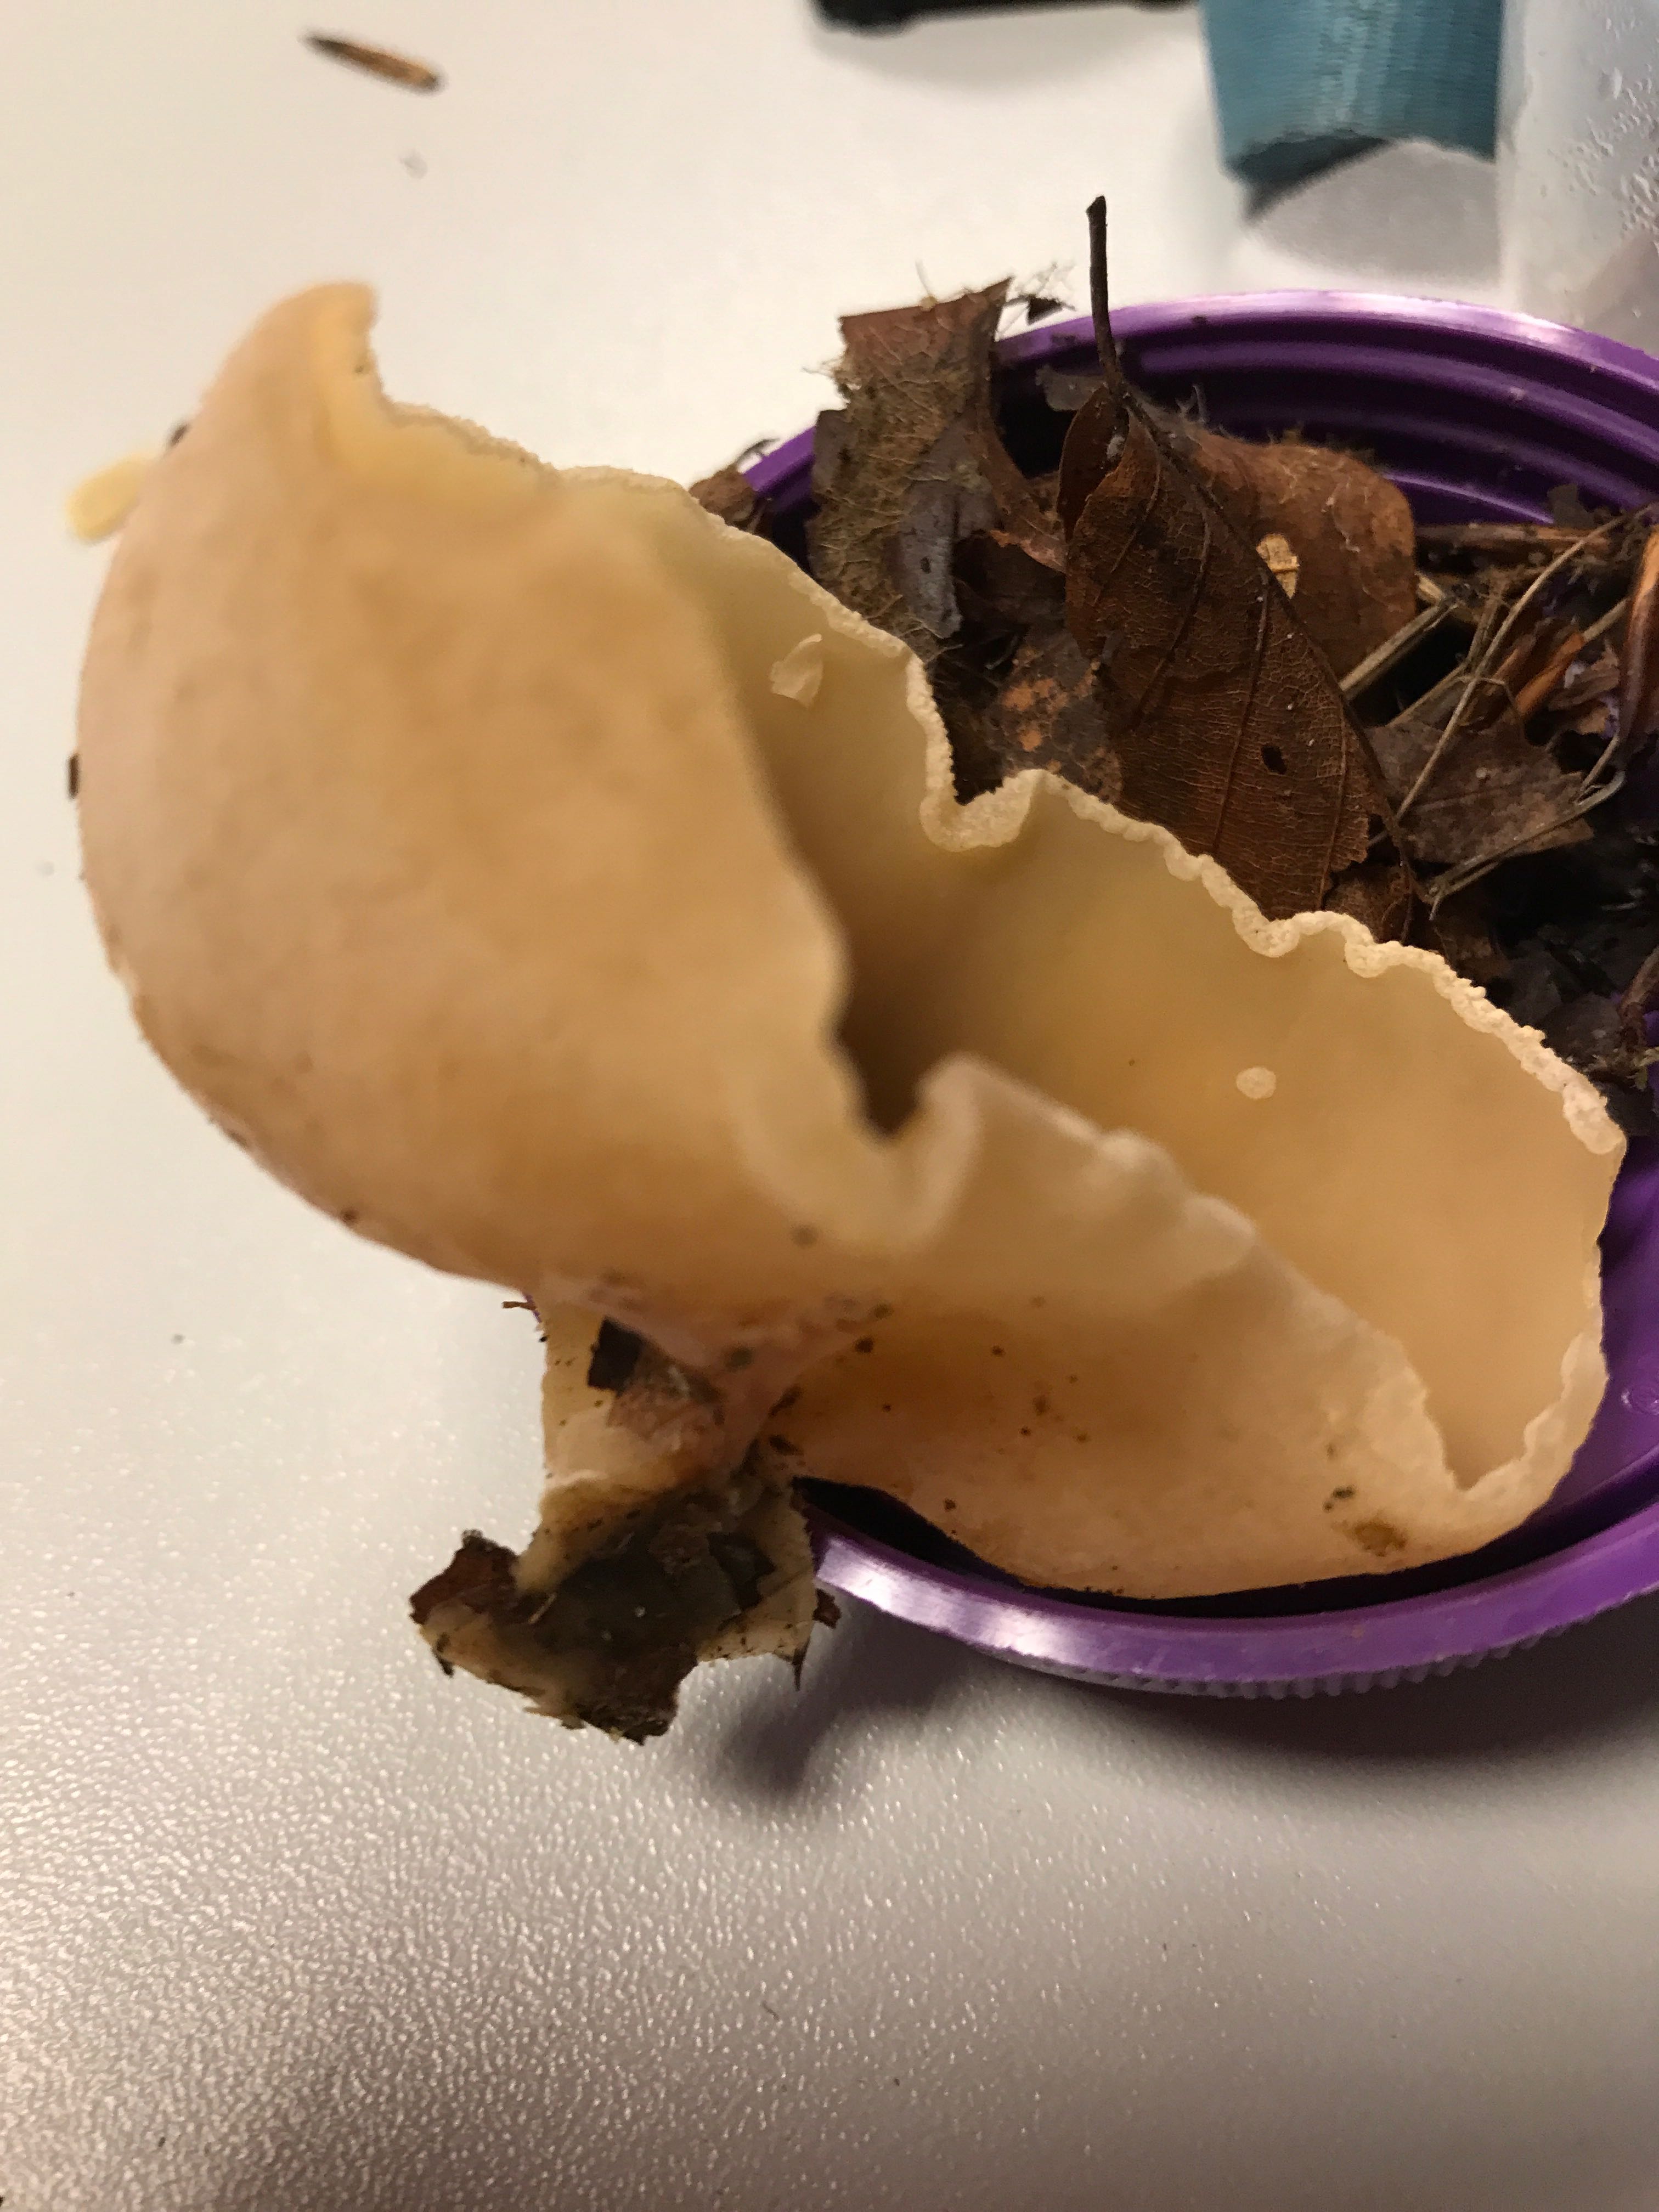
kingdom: Fungi
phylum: Ascomycota
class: Pezizomycetes
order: Pezizales
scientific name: Pezizales
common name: bægersvampordenen
